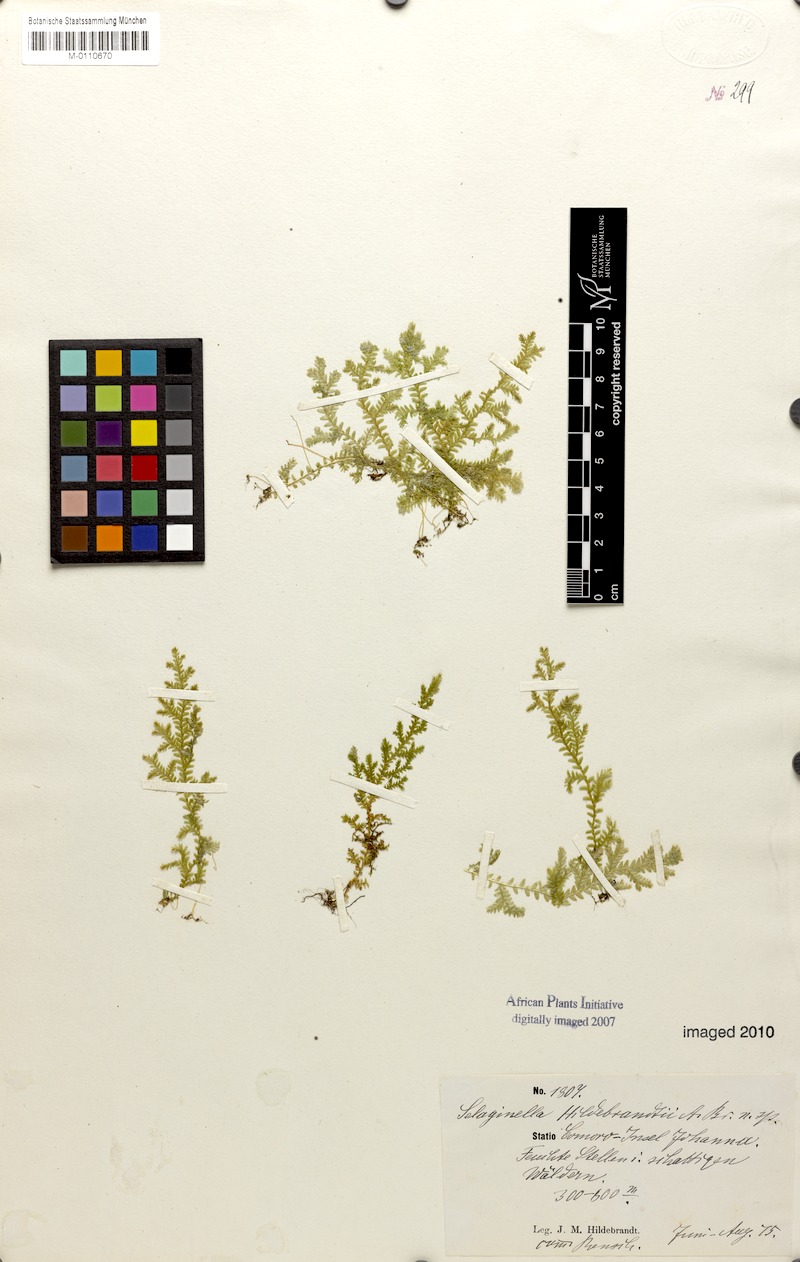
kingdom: Plantae
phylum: Tracheophyta
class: Lycopodiopsida
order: Selaginellales
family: Selaginellaceae
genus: Selaginella
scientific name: Selaginella hildebrandtii
